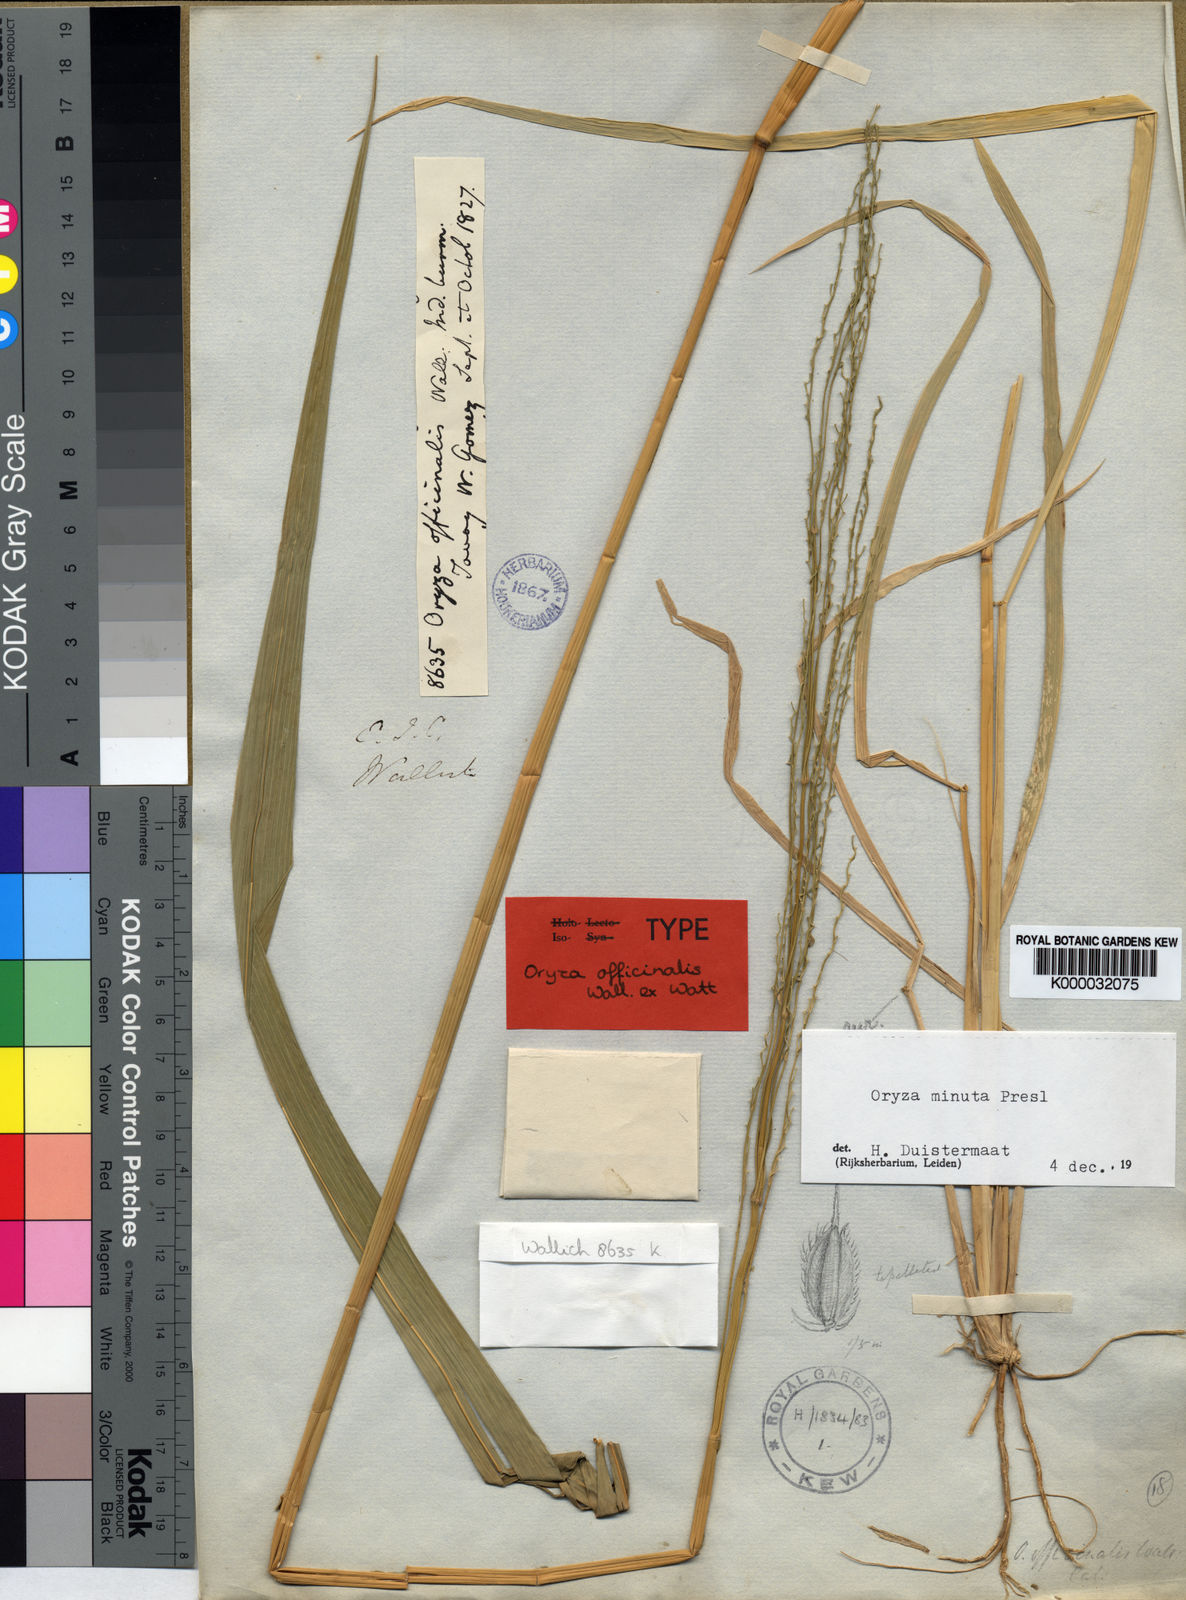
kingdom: Plantae
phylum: Tracheophyta
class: Liliopsida
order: Poales
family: Poaceae
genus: Oryza
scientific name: Oryza minuta
